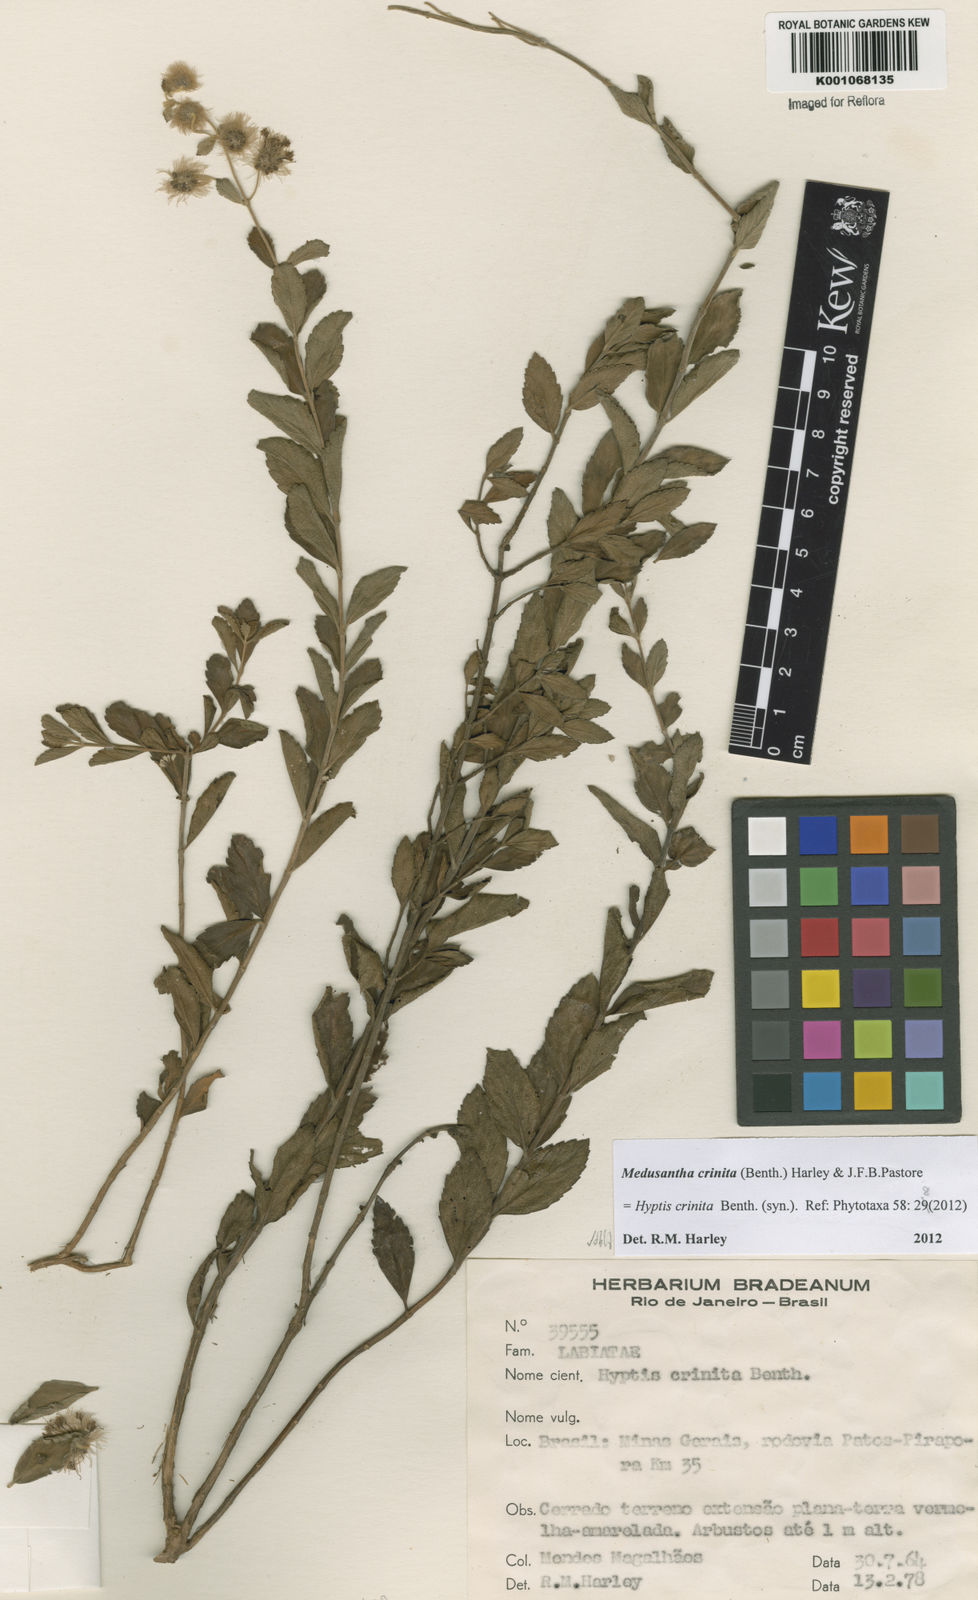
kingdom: Plantae
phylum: Tracheophyta
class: Magnoliopsida
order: Lamiales
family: Lamiaceae
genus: Medusantha
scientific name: Medusantha crinita
